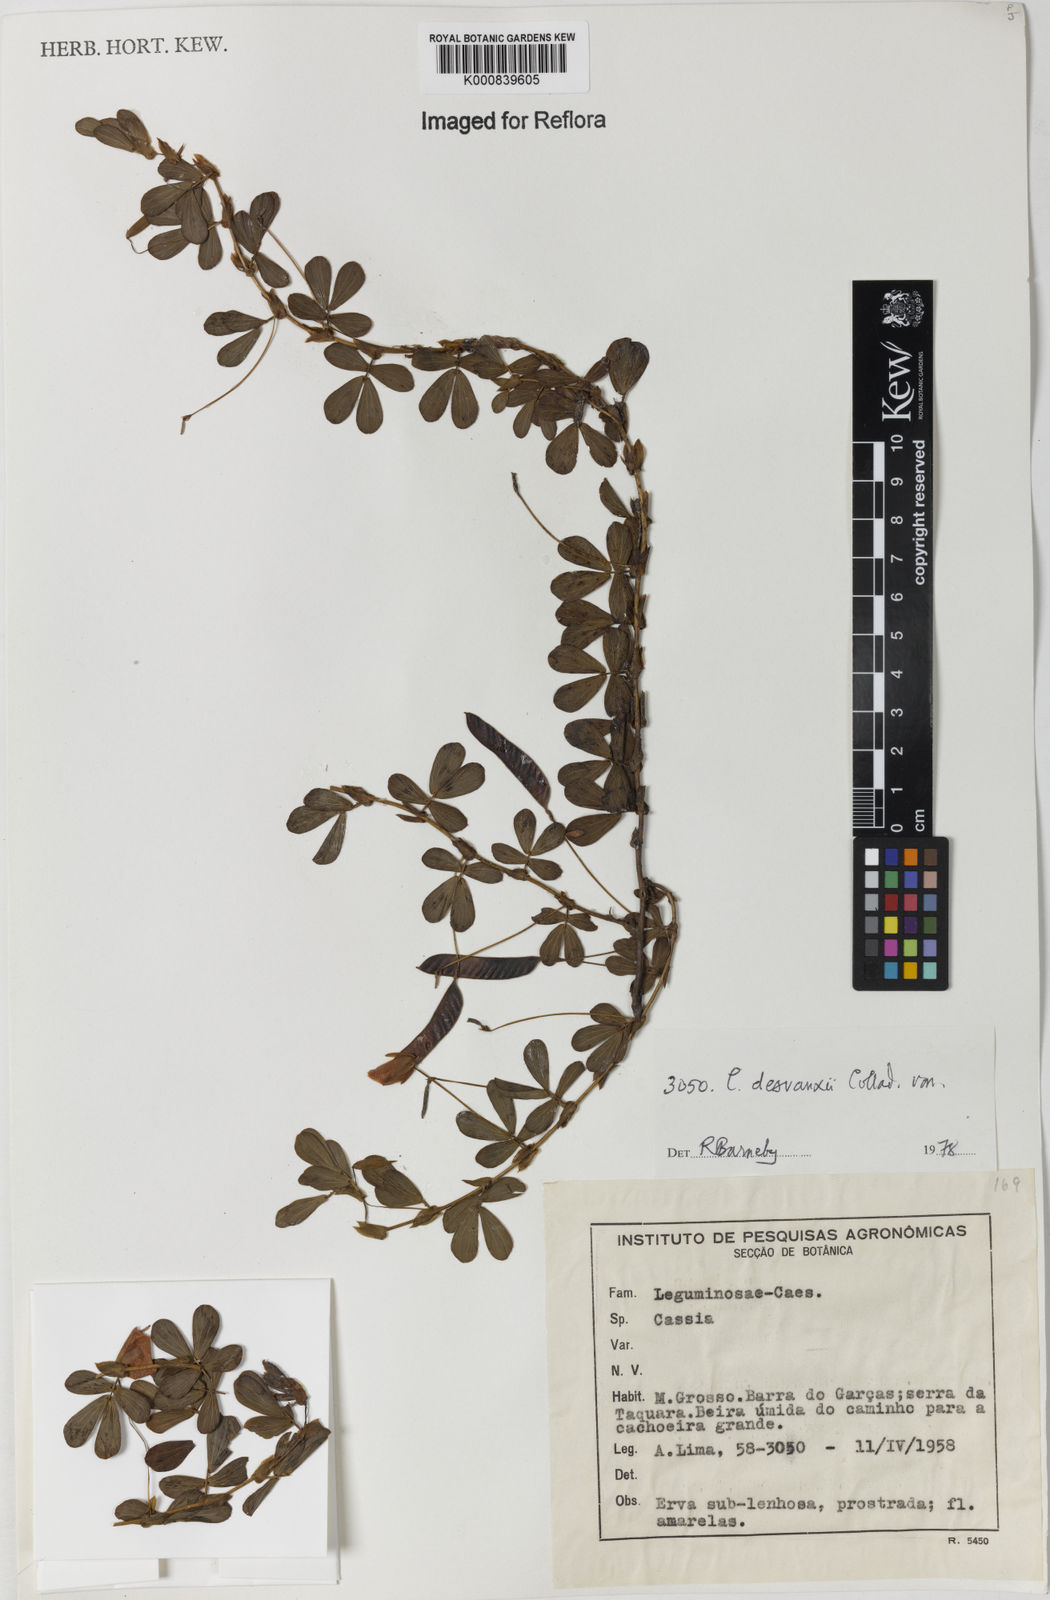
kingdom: Plantae
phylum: Tracheophyta
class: Magnoliopsida
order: Fabales
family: Fabaceae
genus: Chamaecrista
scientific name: Chamaecrista desvauxii
